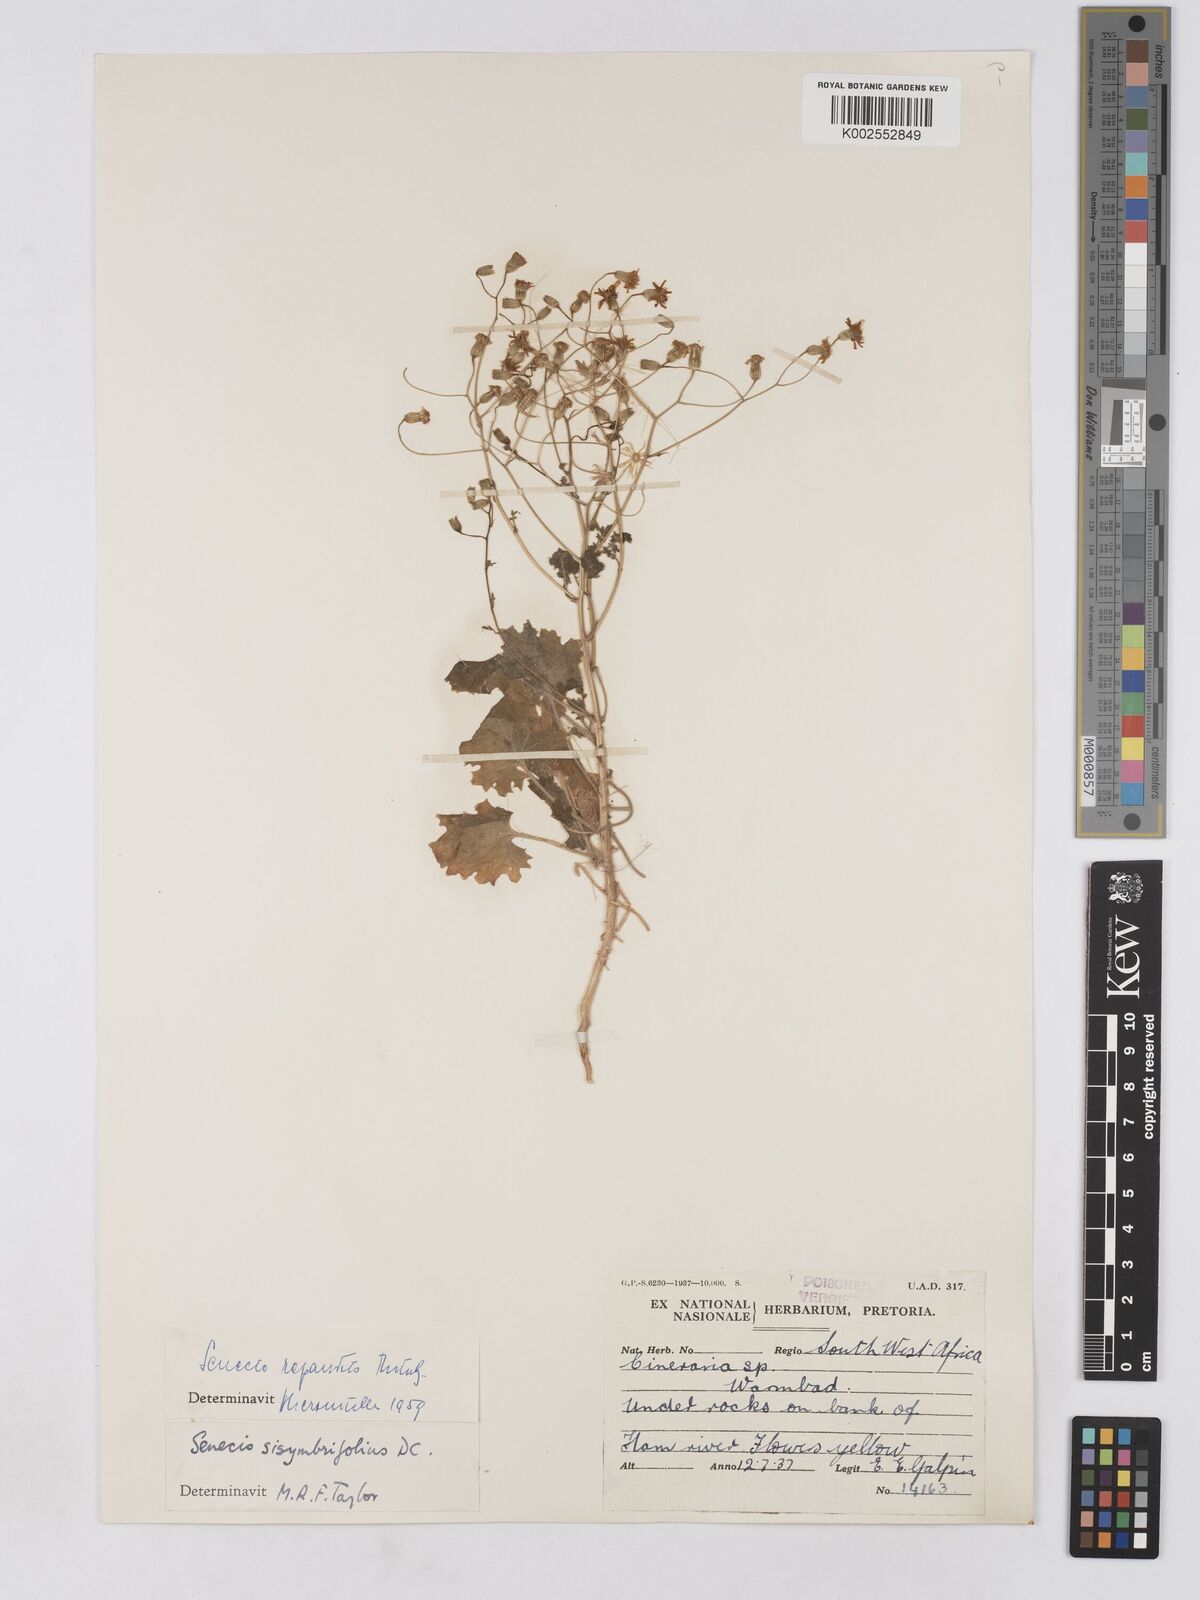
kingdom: Plantae
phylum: Tracheophyta
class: Magnoliopsida
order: Asterales
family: Asteraceae
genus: Senecio
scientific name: Senecio repandus
